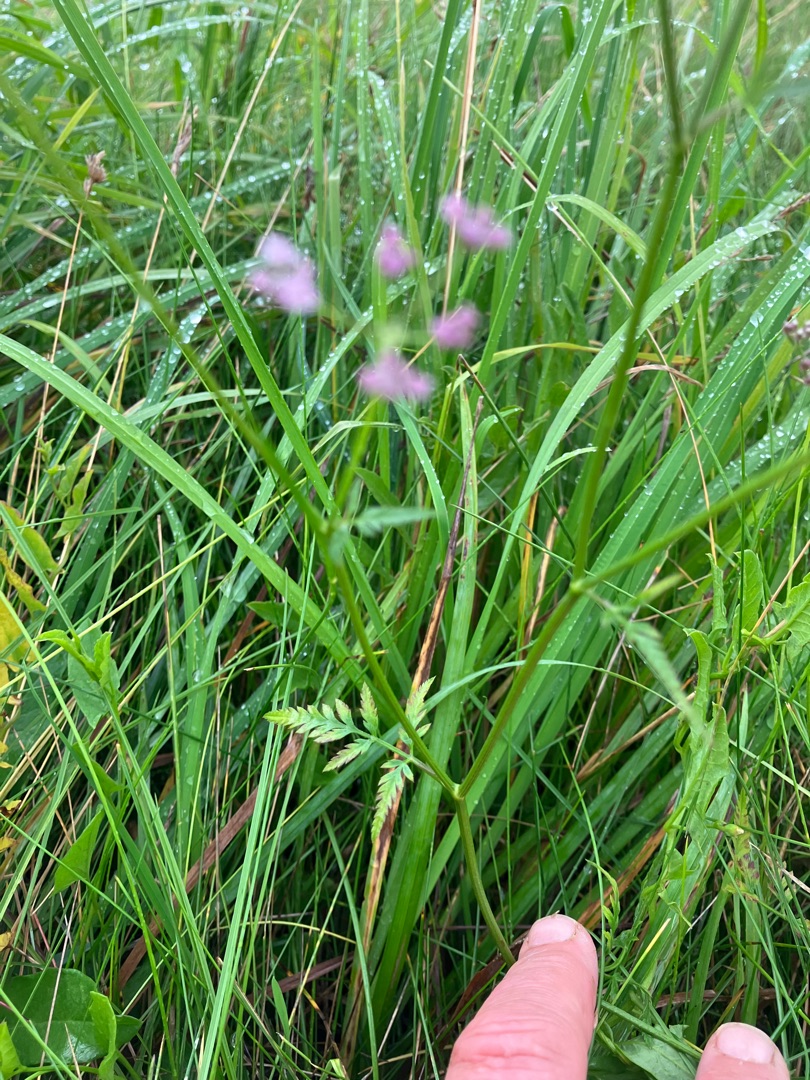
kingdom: Plantae
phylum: Tracheophyta
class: Magnoliopsida
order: Apiales
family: Apiaceae
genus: Torilis
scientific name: Torilis japonica
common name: Hvas randfrø
